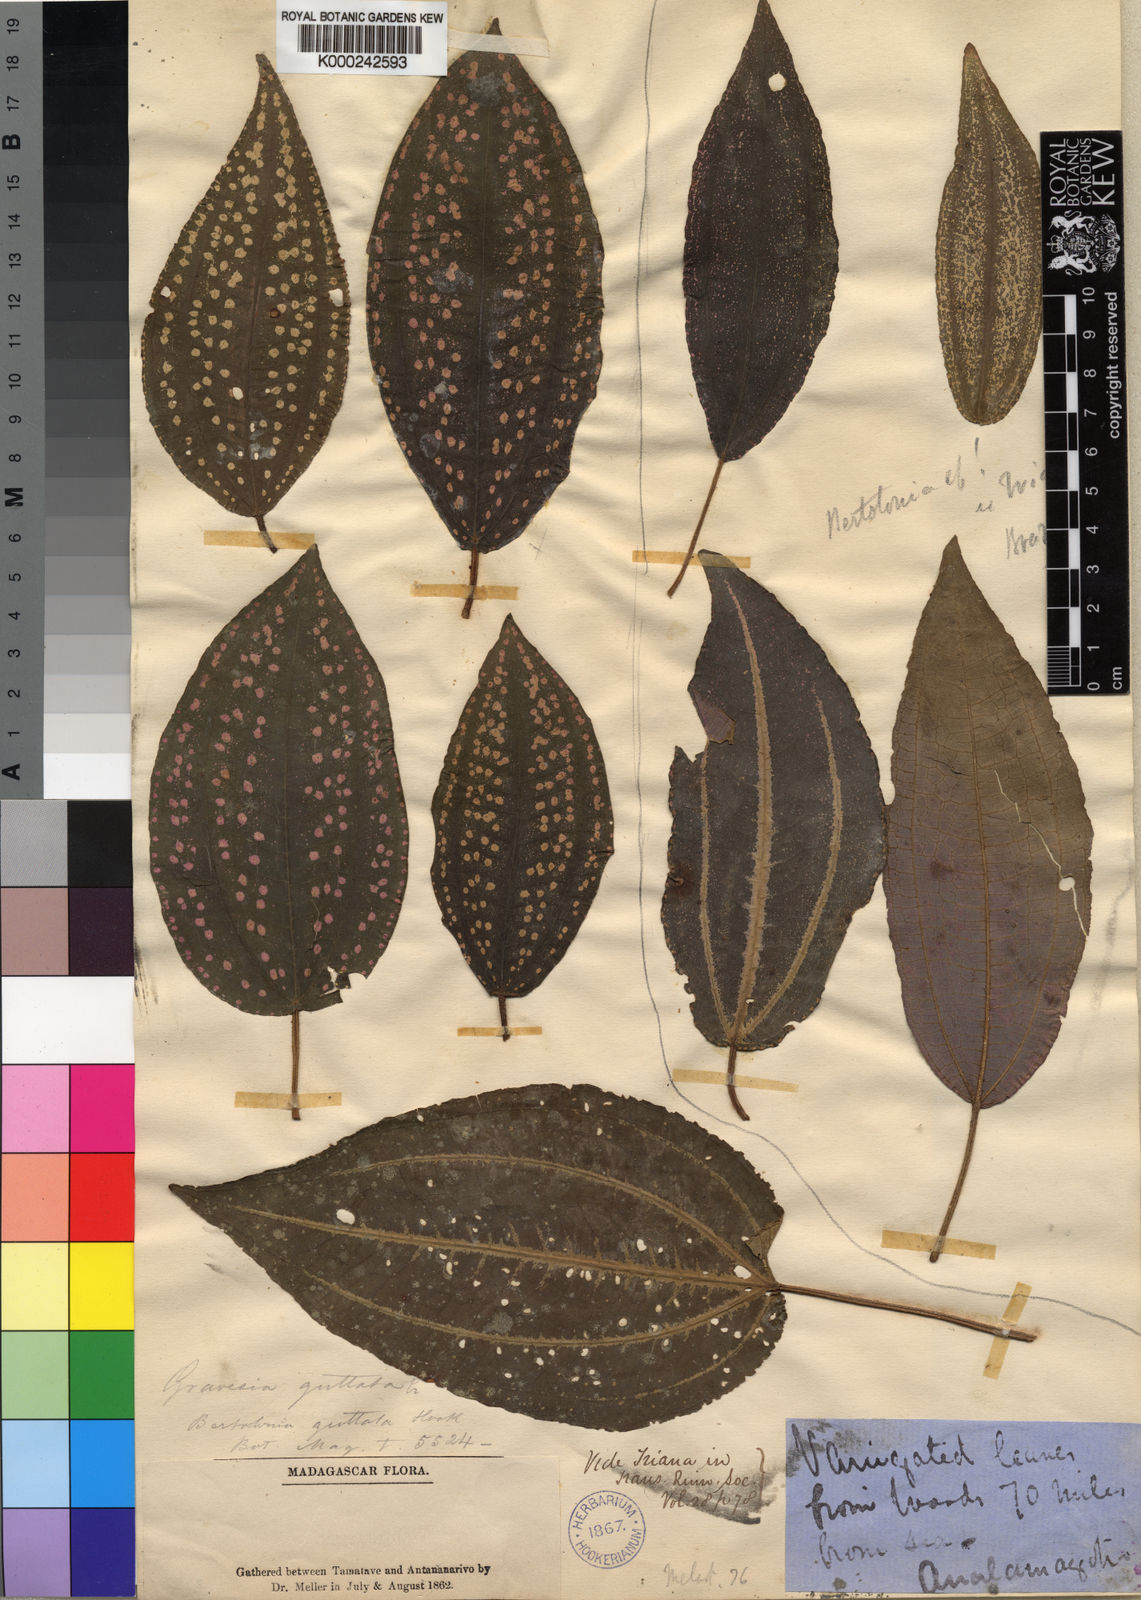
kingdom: Plantae
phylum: Tracheophyta
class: Magnoliopsida
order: Myrtales
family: Melastomataceae
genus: Gravesia
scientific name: Gravesia guttata
